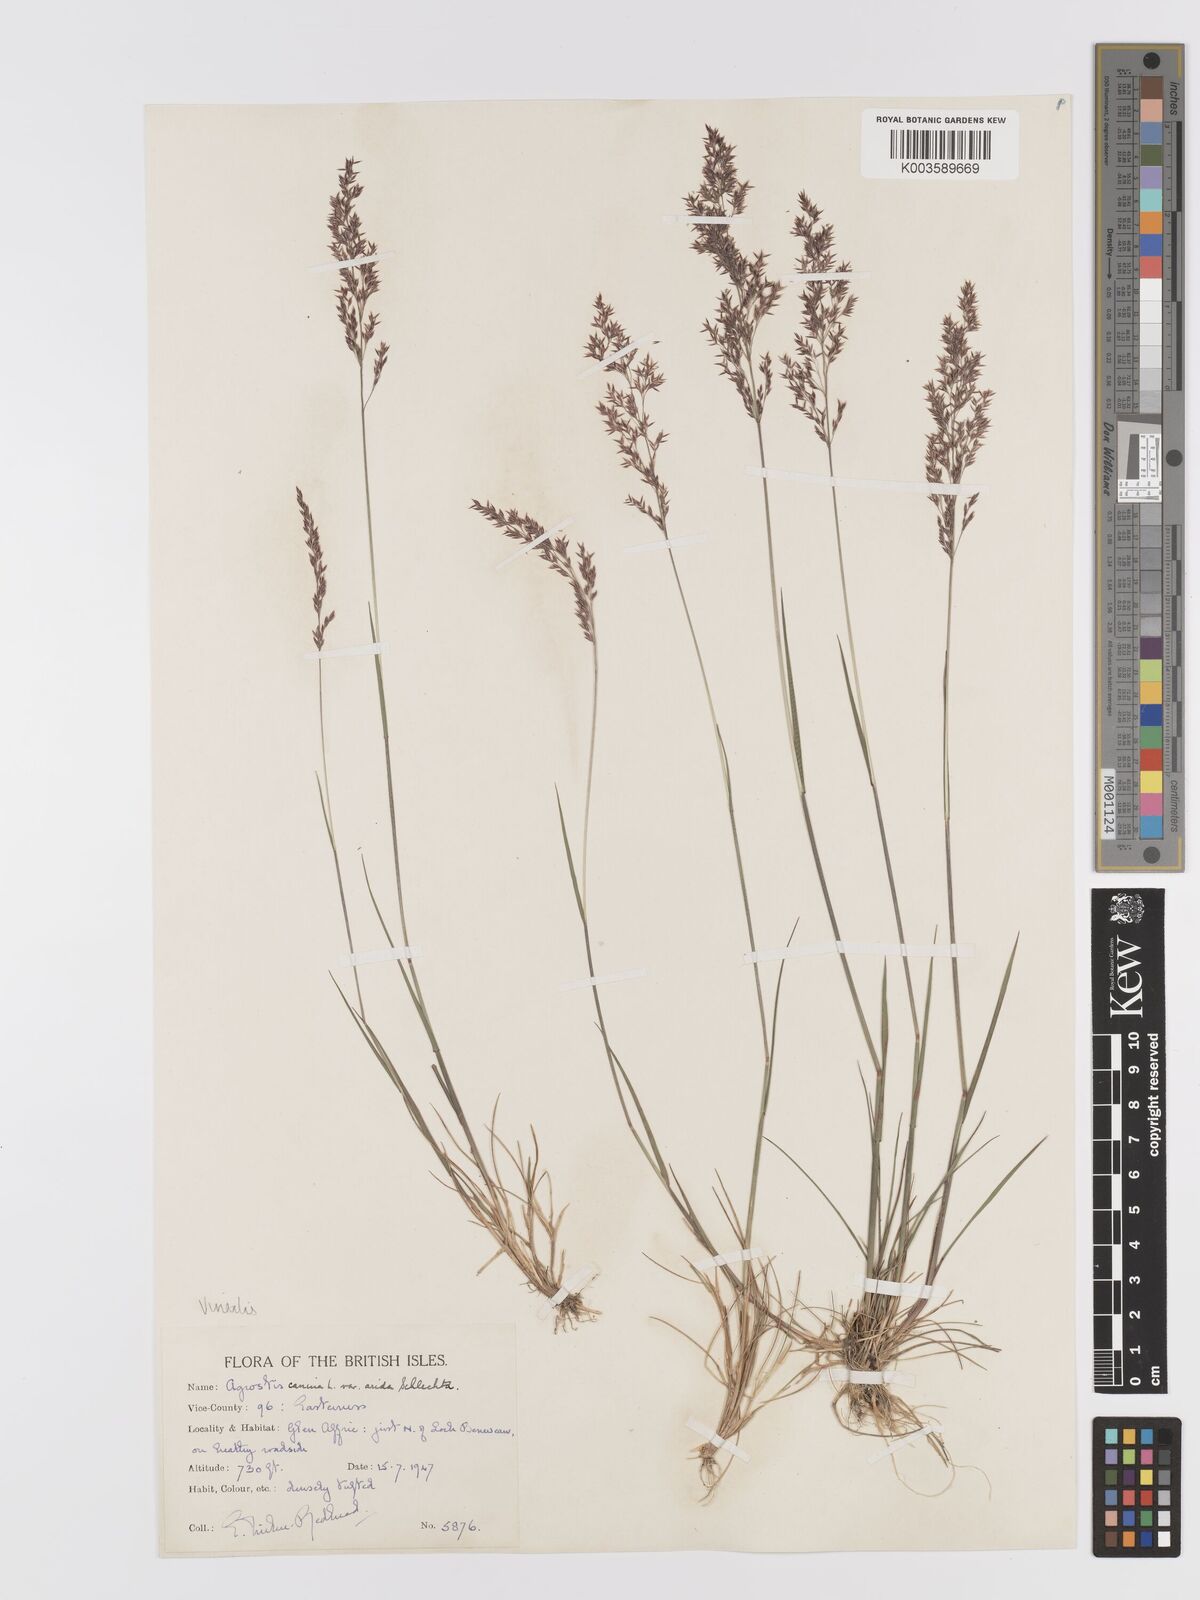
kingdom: Plantae
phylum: Tracheophyta
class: Liliopsida
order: Poales
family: Poaceae
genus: Agrostis
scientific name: Agrostis
